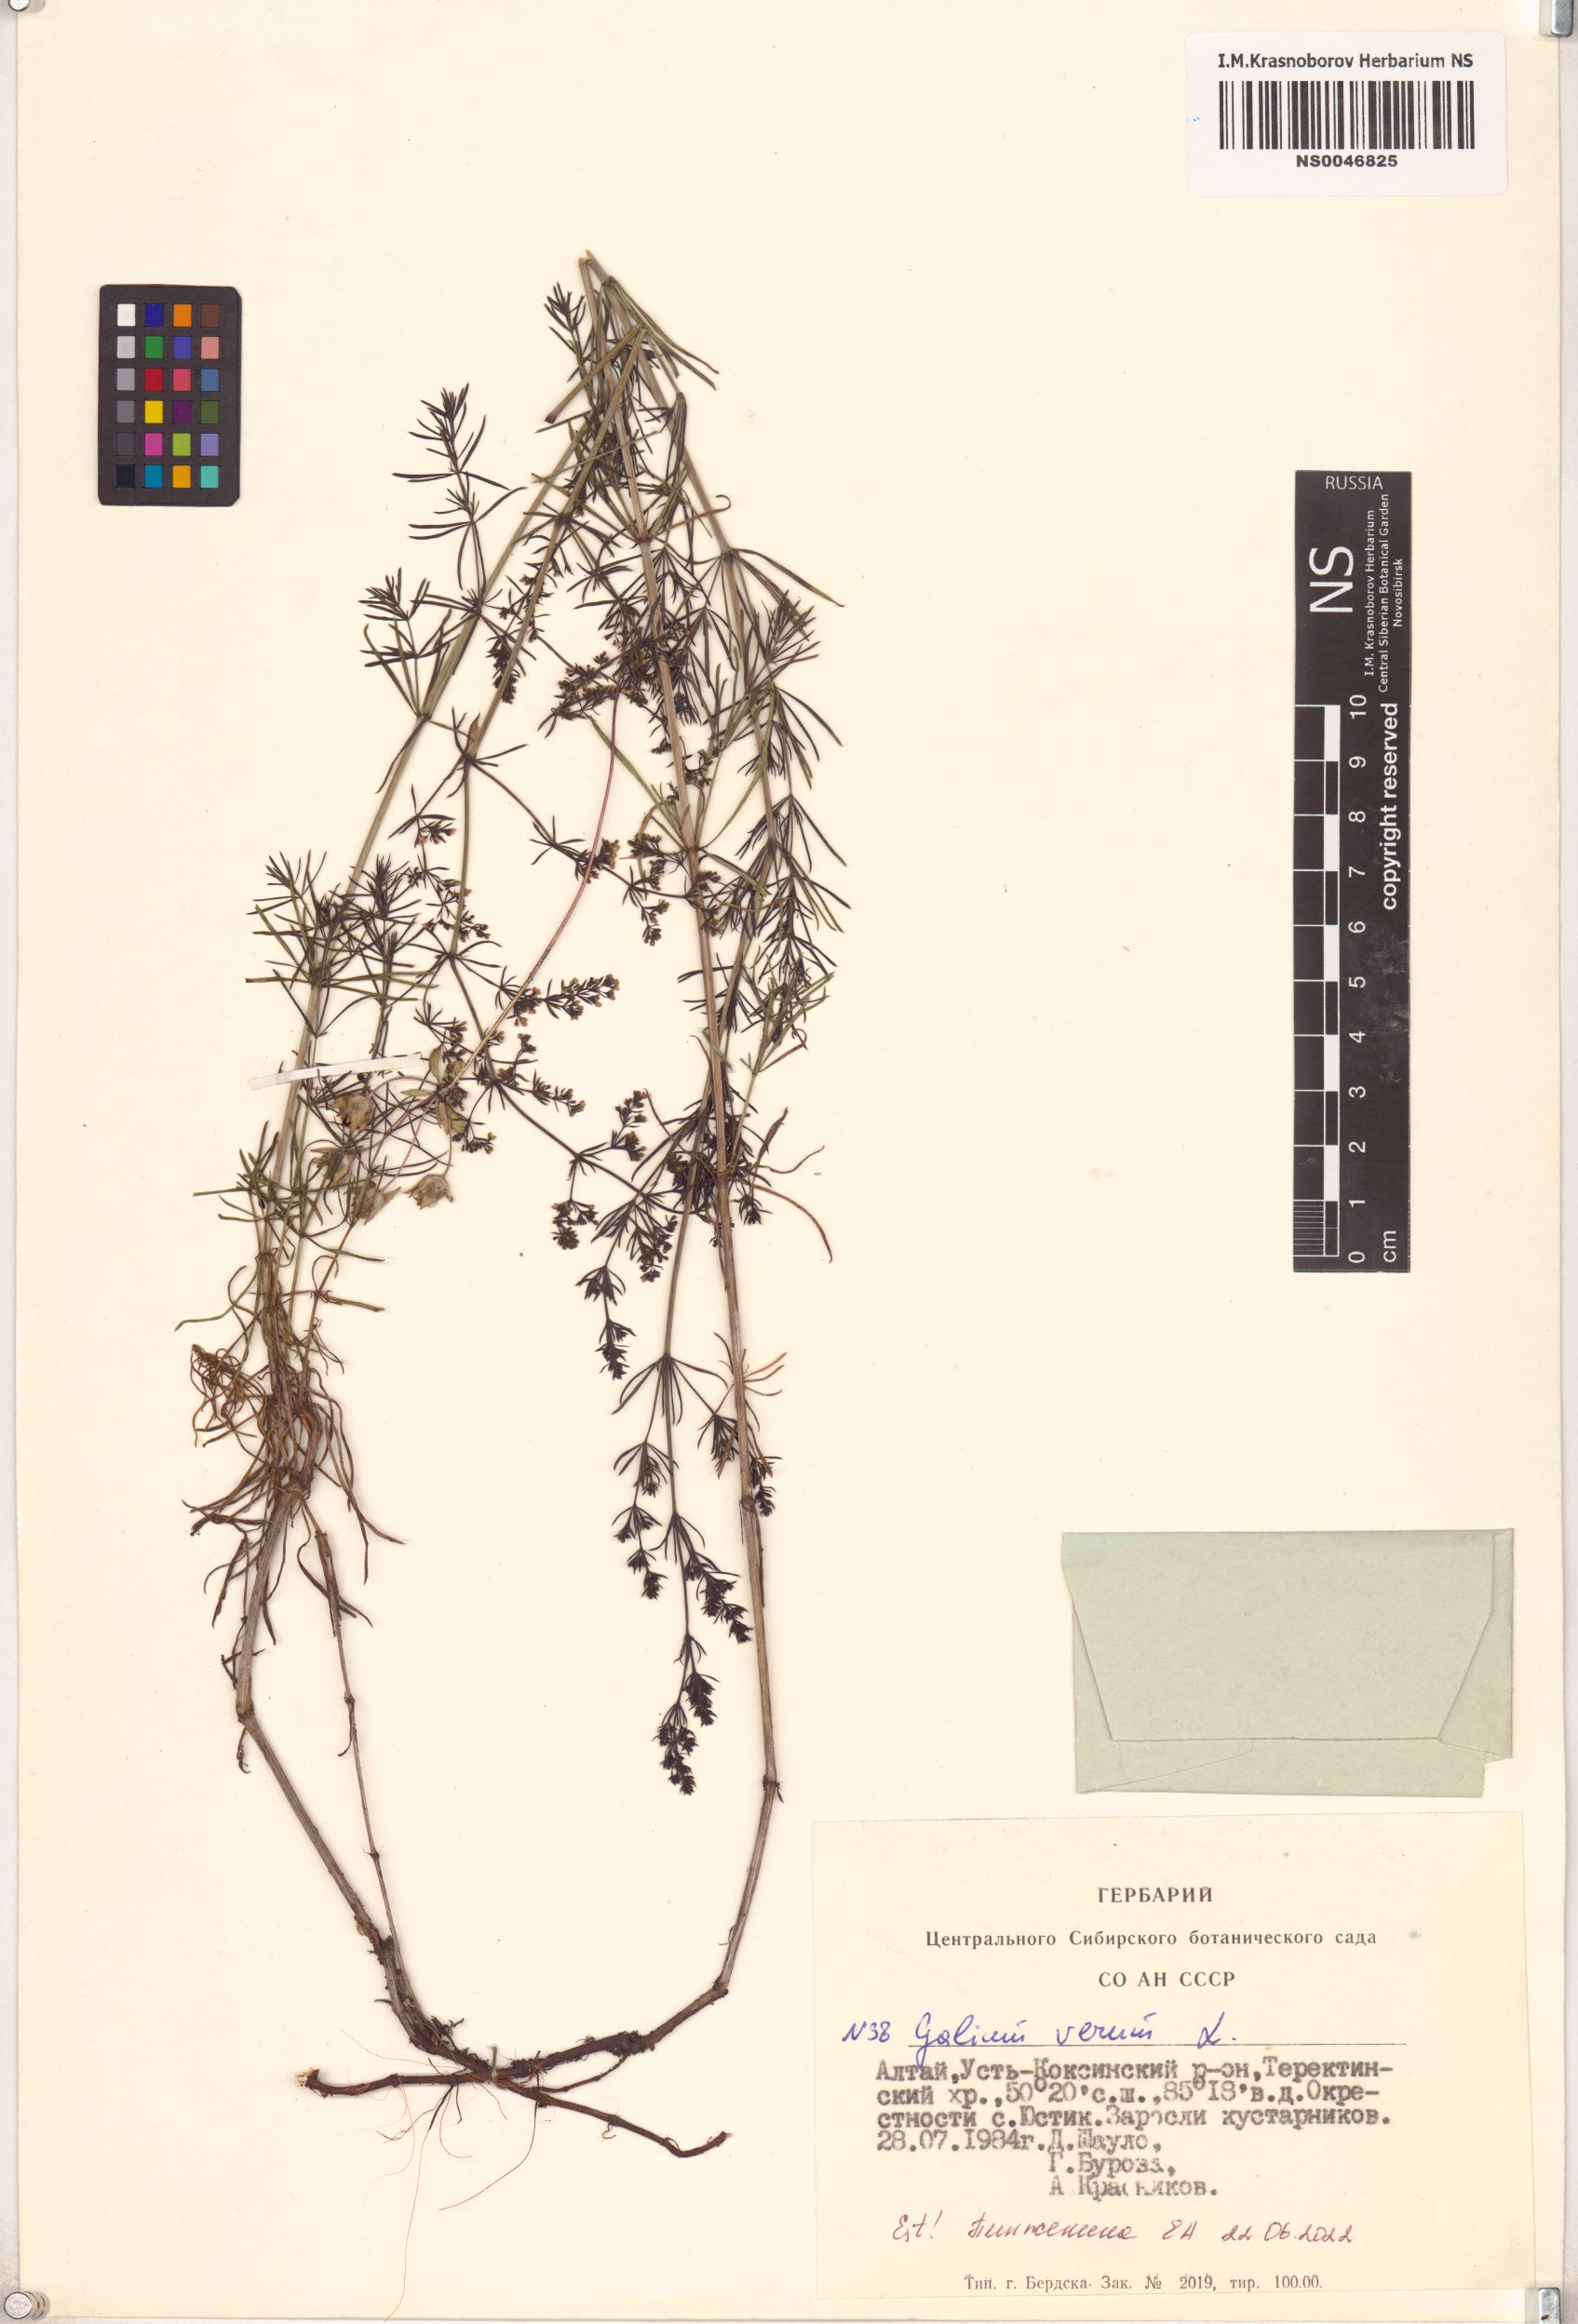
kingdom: Plantae
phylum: Tracheophyta
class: Magnoliopsida
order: Gentianales
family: Rubiaceae
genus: Galium
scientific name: Galium verum
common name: Lady's bedstraw
